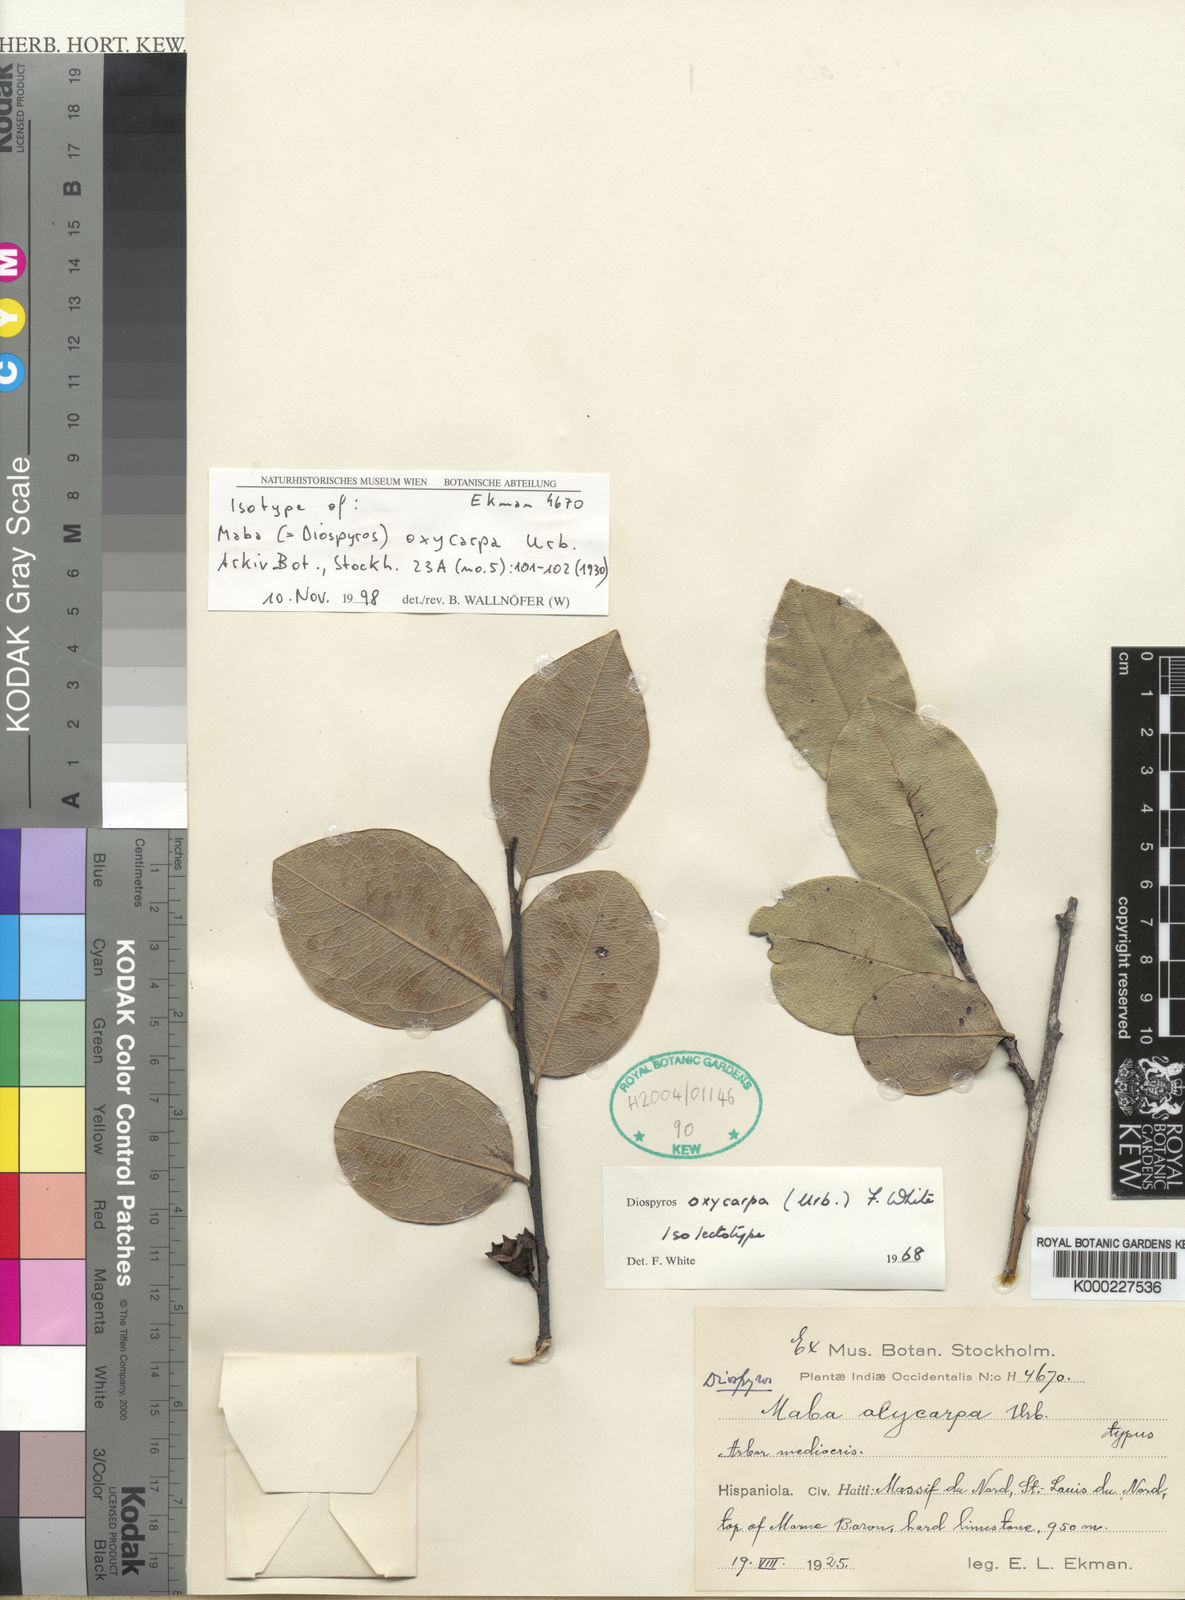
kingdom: Plantae
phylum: Tracheophyta
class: Magnoliopsida
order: Ericales
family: Ebenaceae
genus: Diospyros
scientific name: Diospyros
